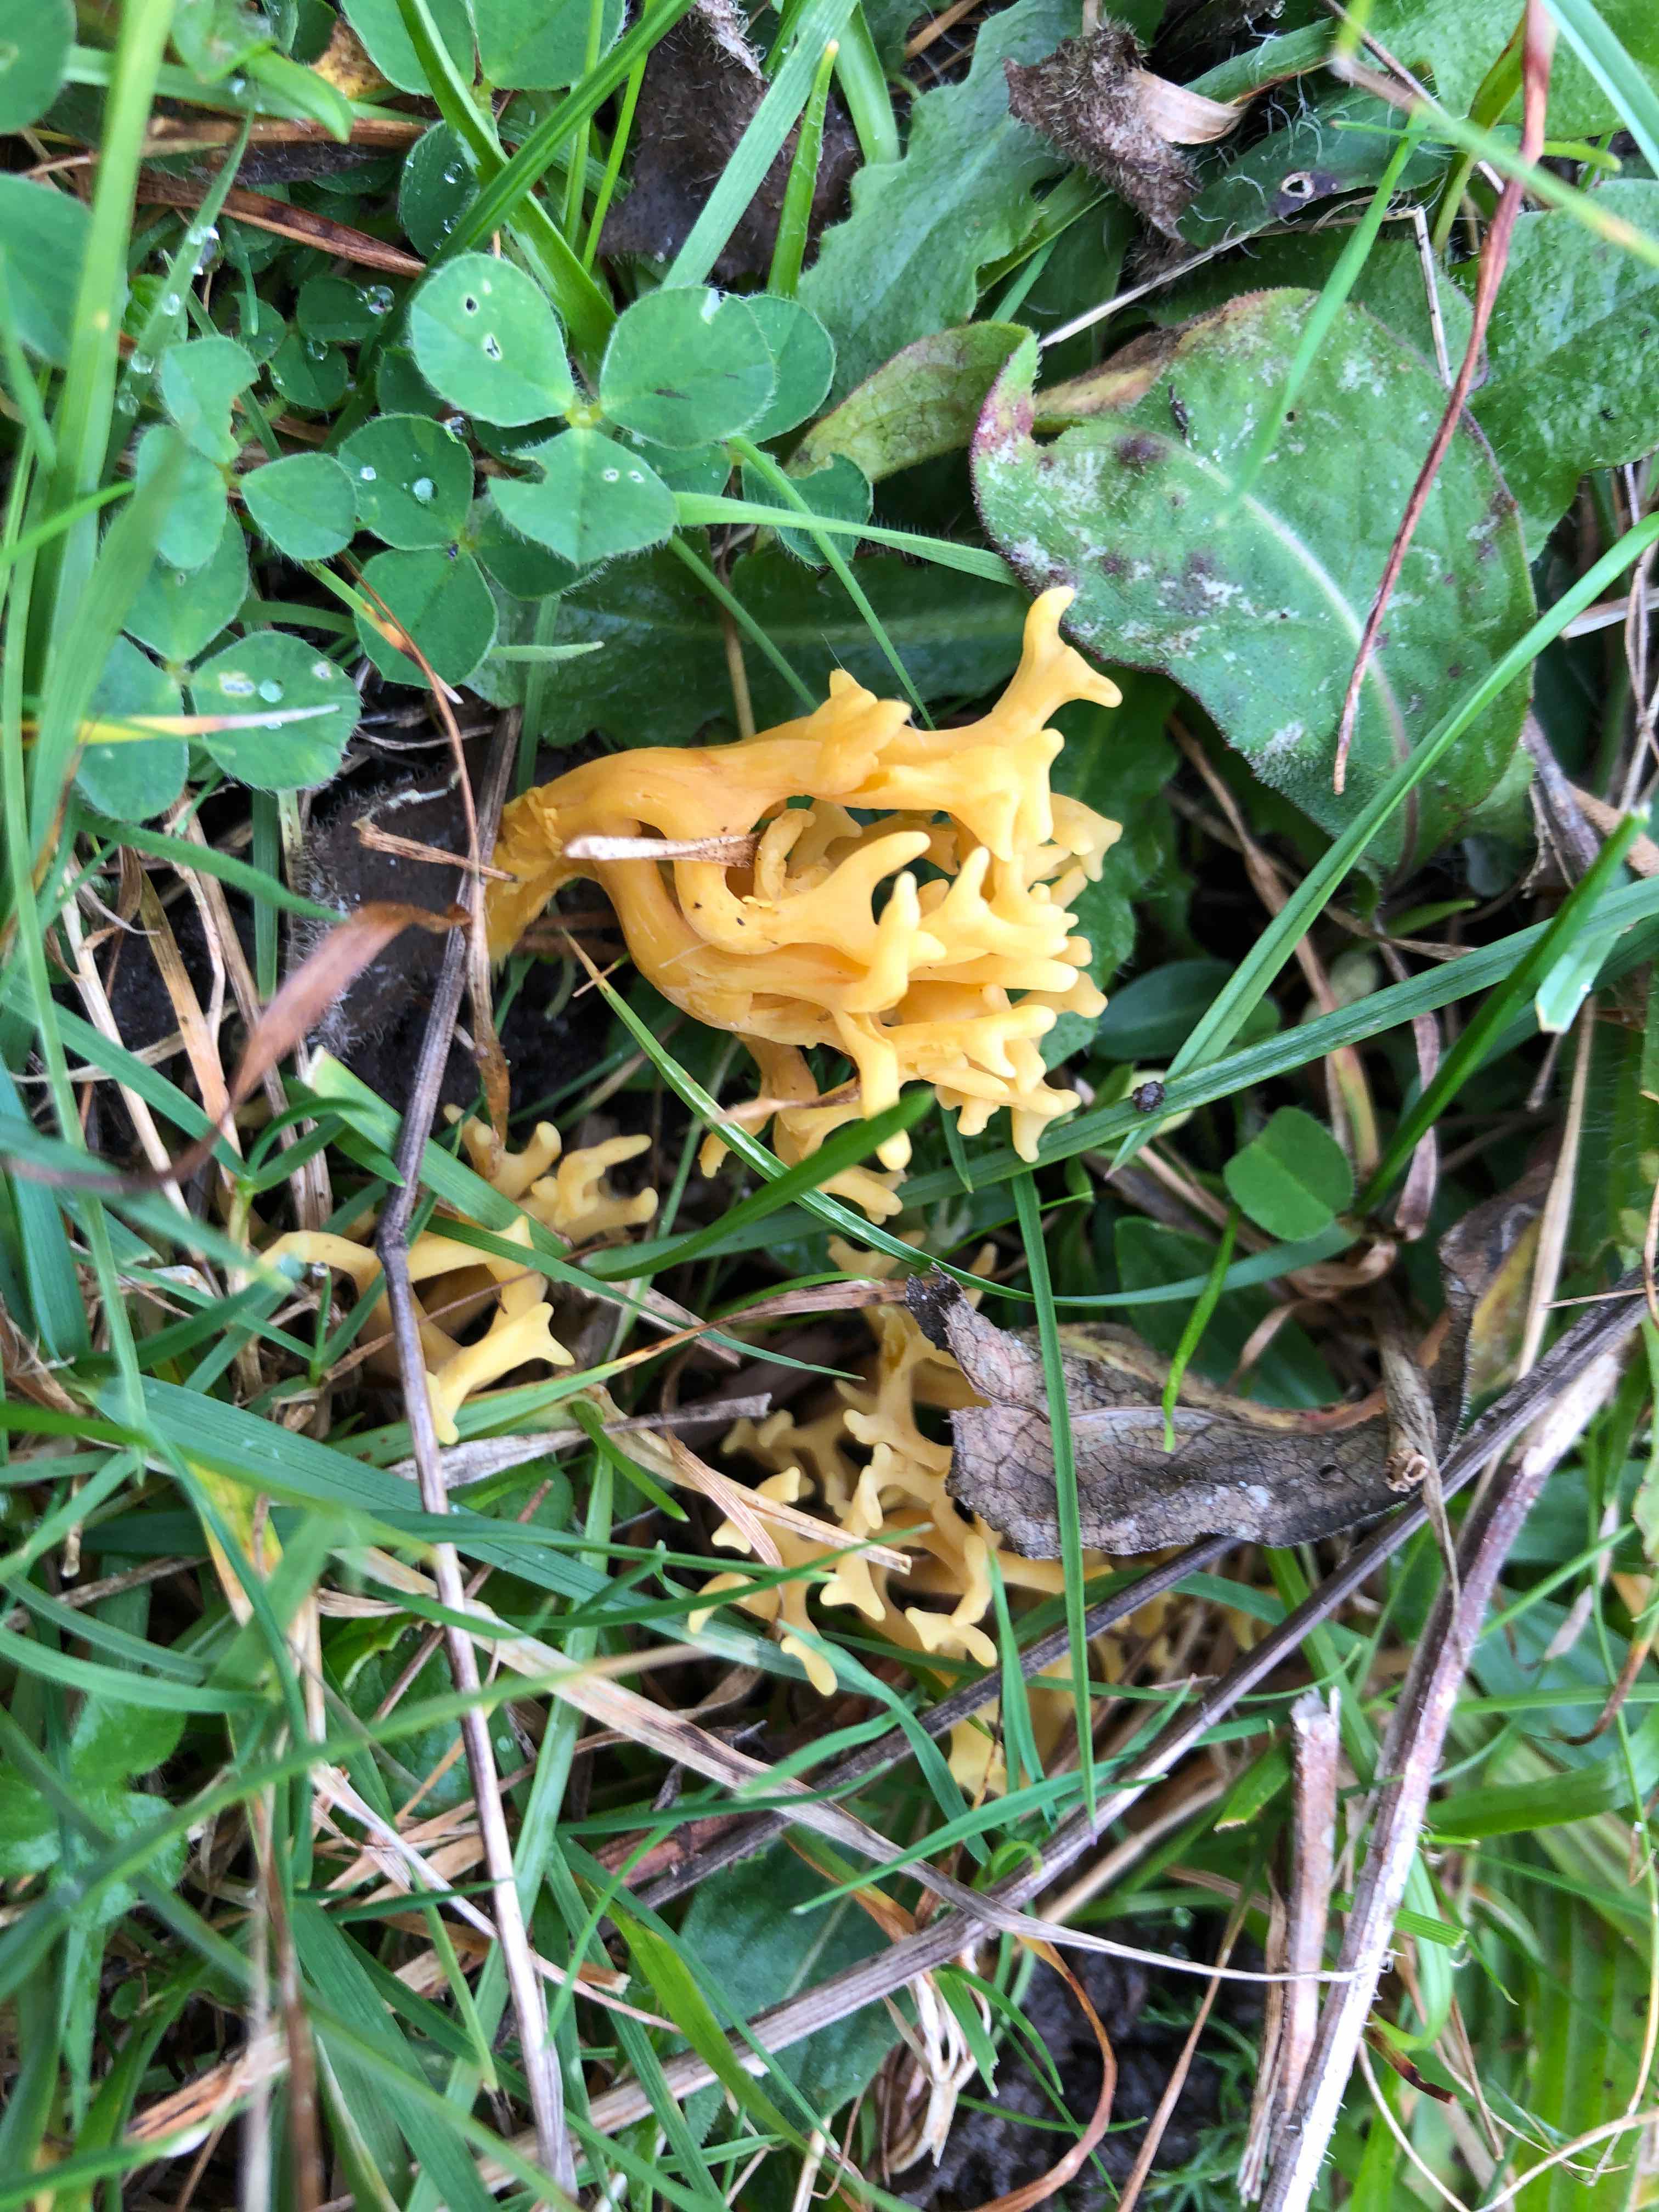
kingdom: Fungi
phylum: Basidiomycota
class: Agaricomycetes
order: Agaricales
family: Clavariaceae
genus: Clavulinopsis
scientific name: Clavulinopsis corniculata
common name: eng-køllesvamp
